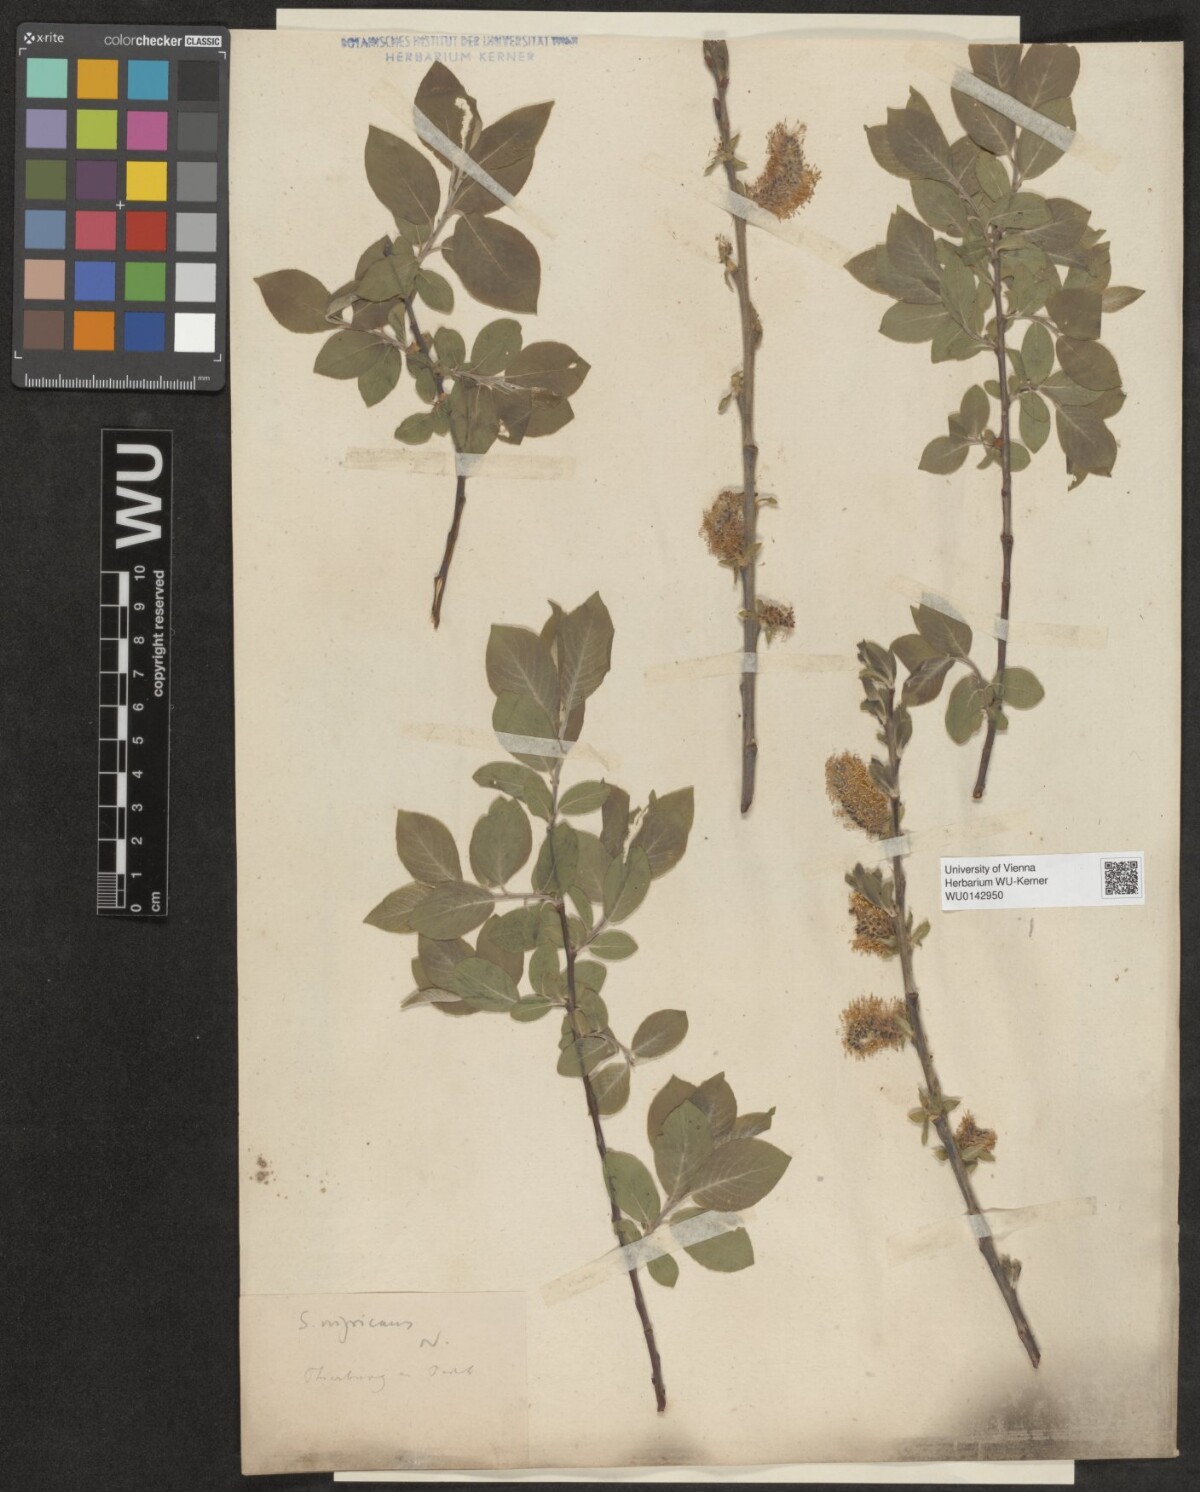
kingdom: Plantae
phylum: Tracheophyta
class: Magnoliopsida
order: Malpighiales
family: Salicaceae
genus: Salix
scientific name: Salix myrsinifolia
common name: Dark-leaved willow
